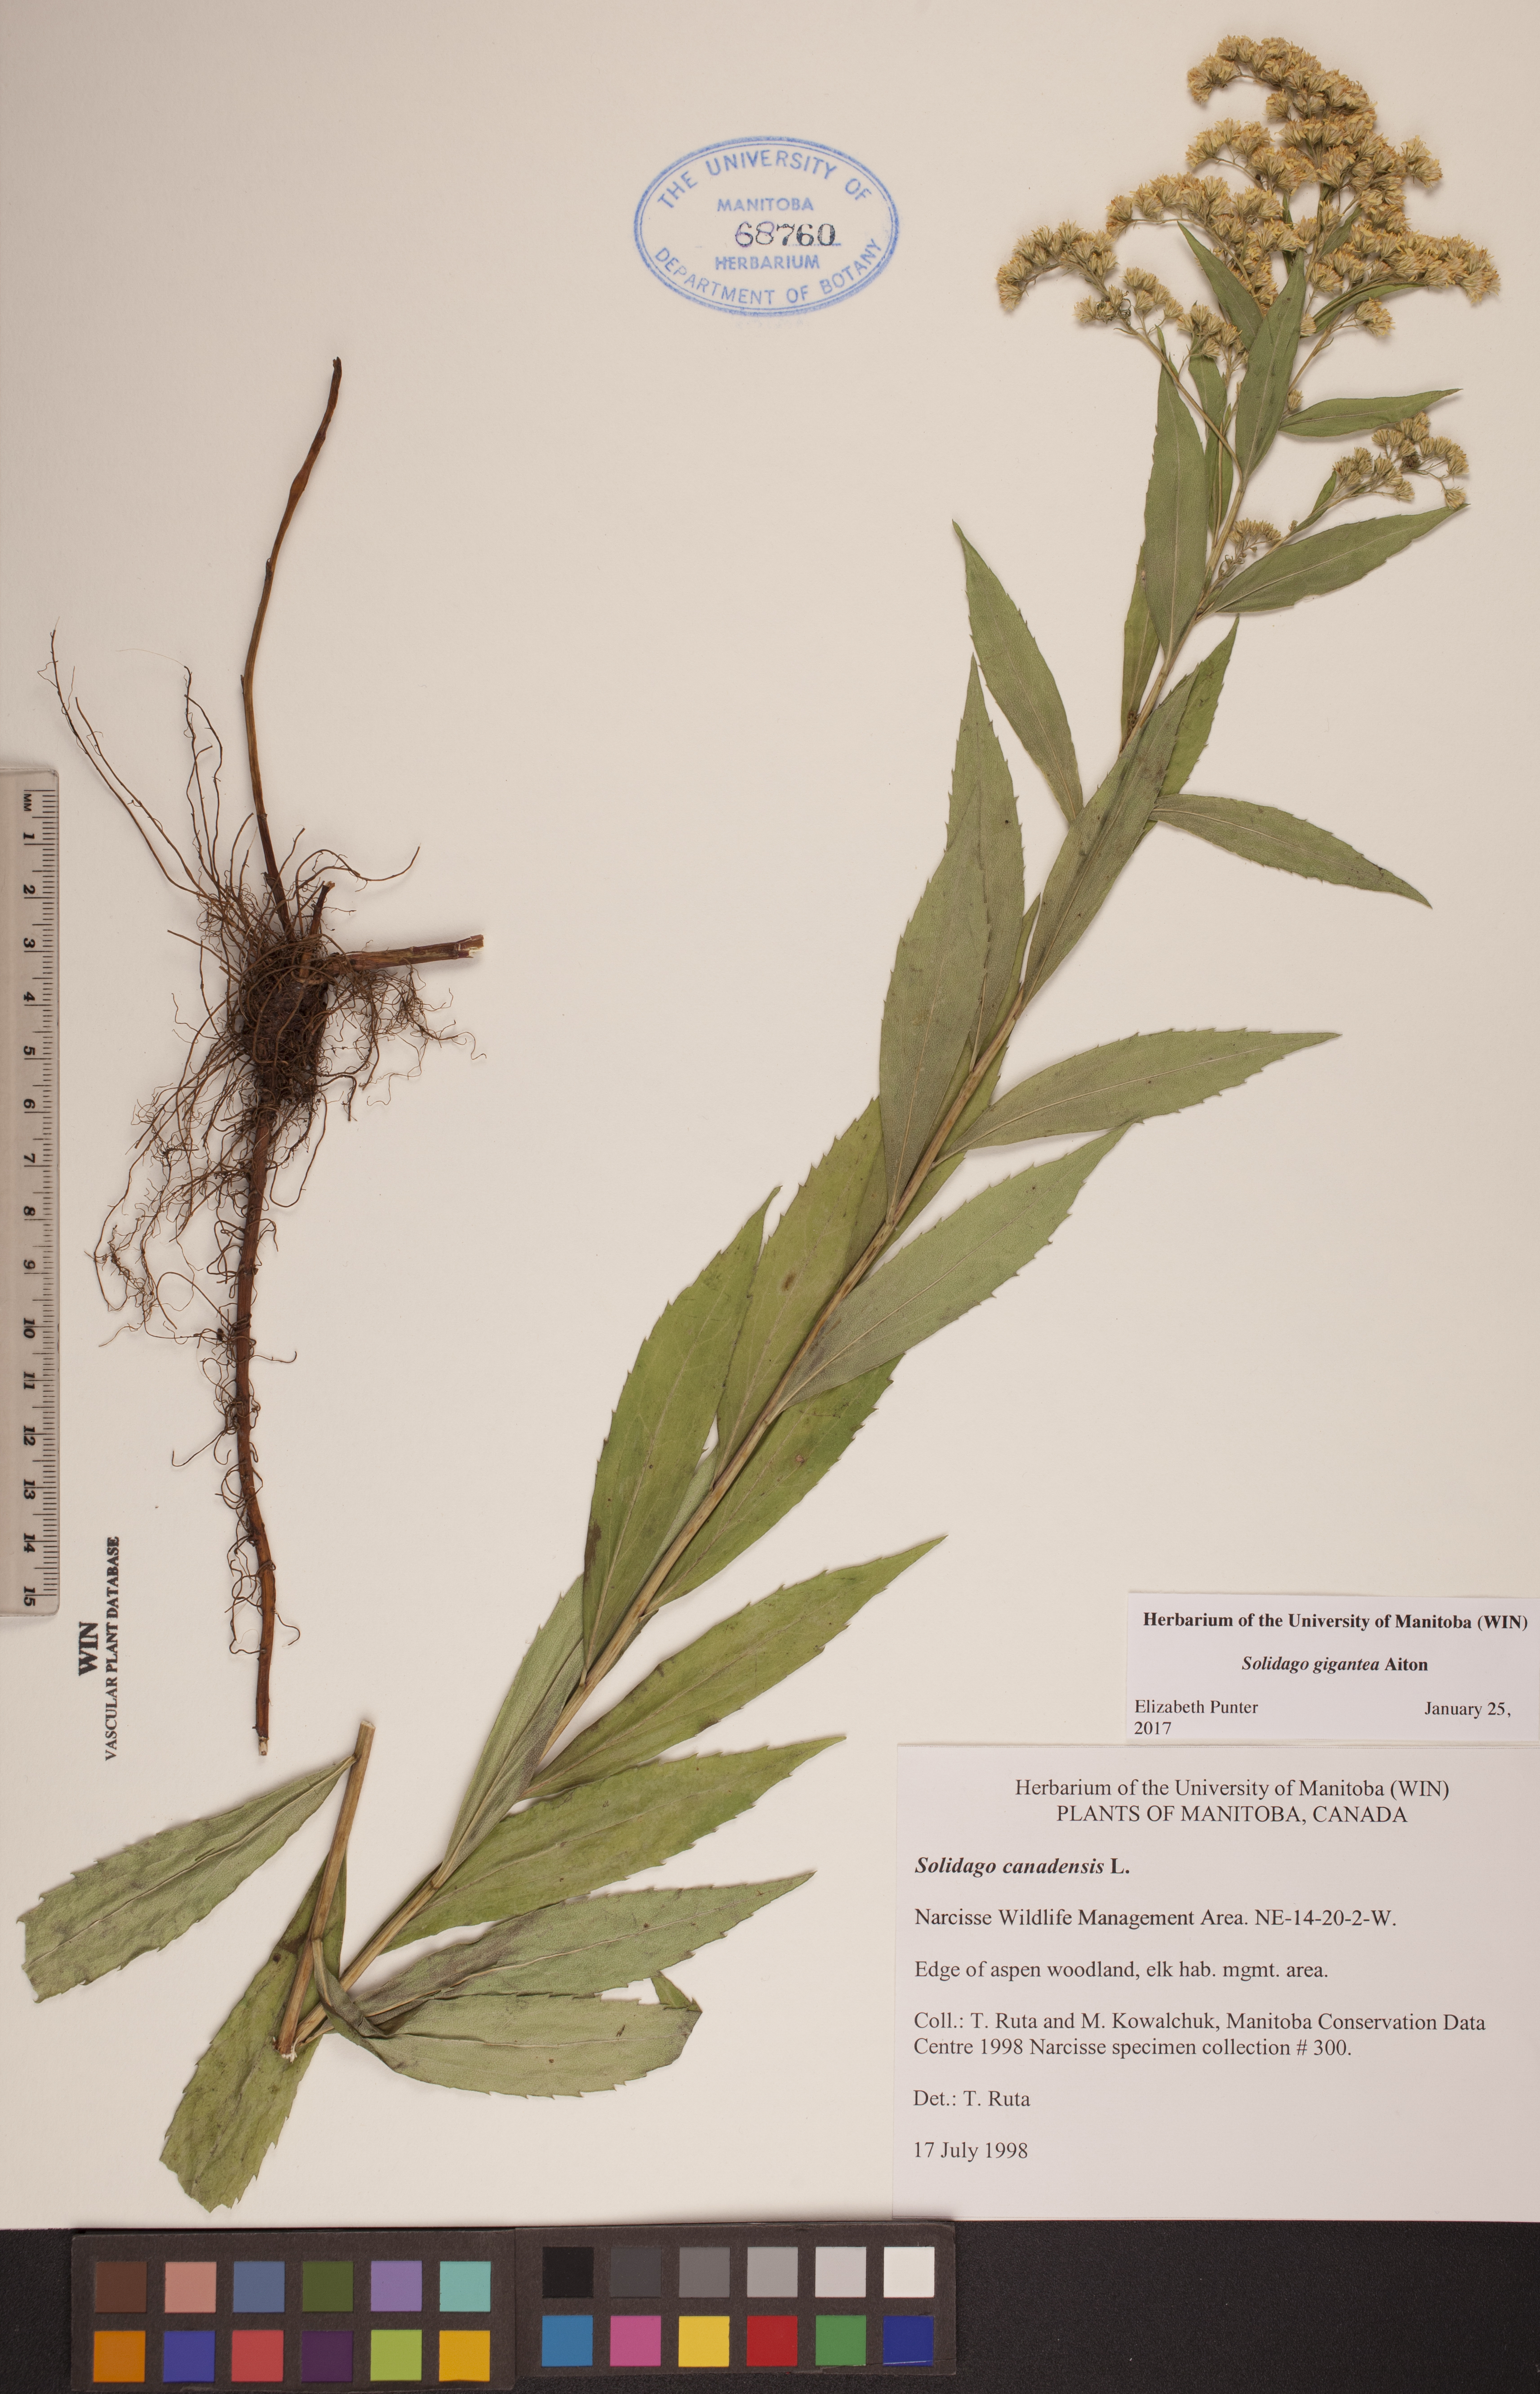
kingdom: Plantae
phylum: Tracheophyta
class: Magnoliopsida
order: Asterales
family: Asteraceae
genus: Solidago
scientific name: Solidago gigantea
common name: Giant goldenrod
